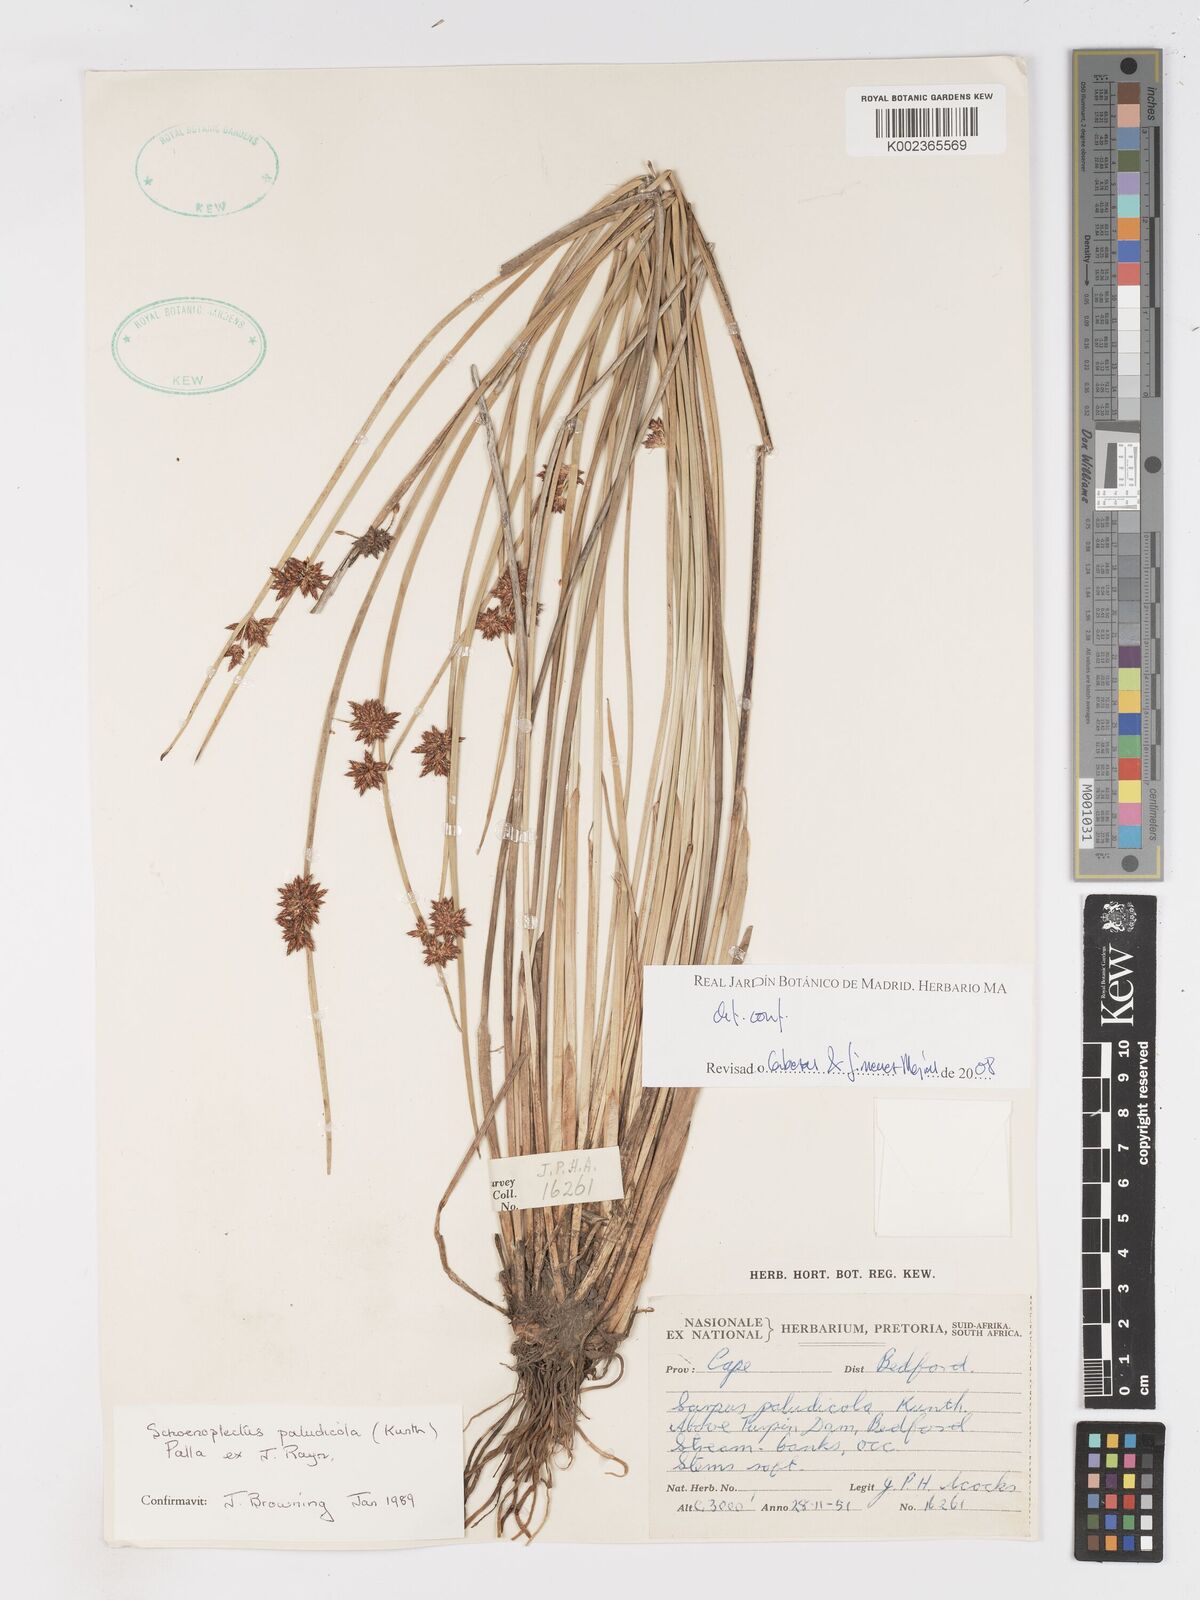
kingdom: Plantae
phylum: Tracheophyta
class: Liliopsida
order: Poales
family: Cyperaceae
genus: Schoenoplectiella
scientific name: Schoenoplectiella paludicola
